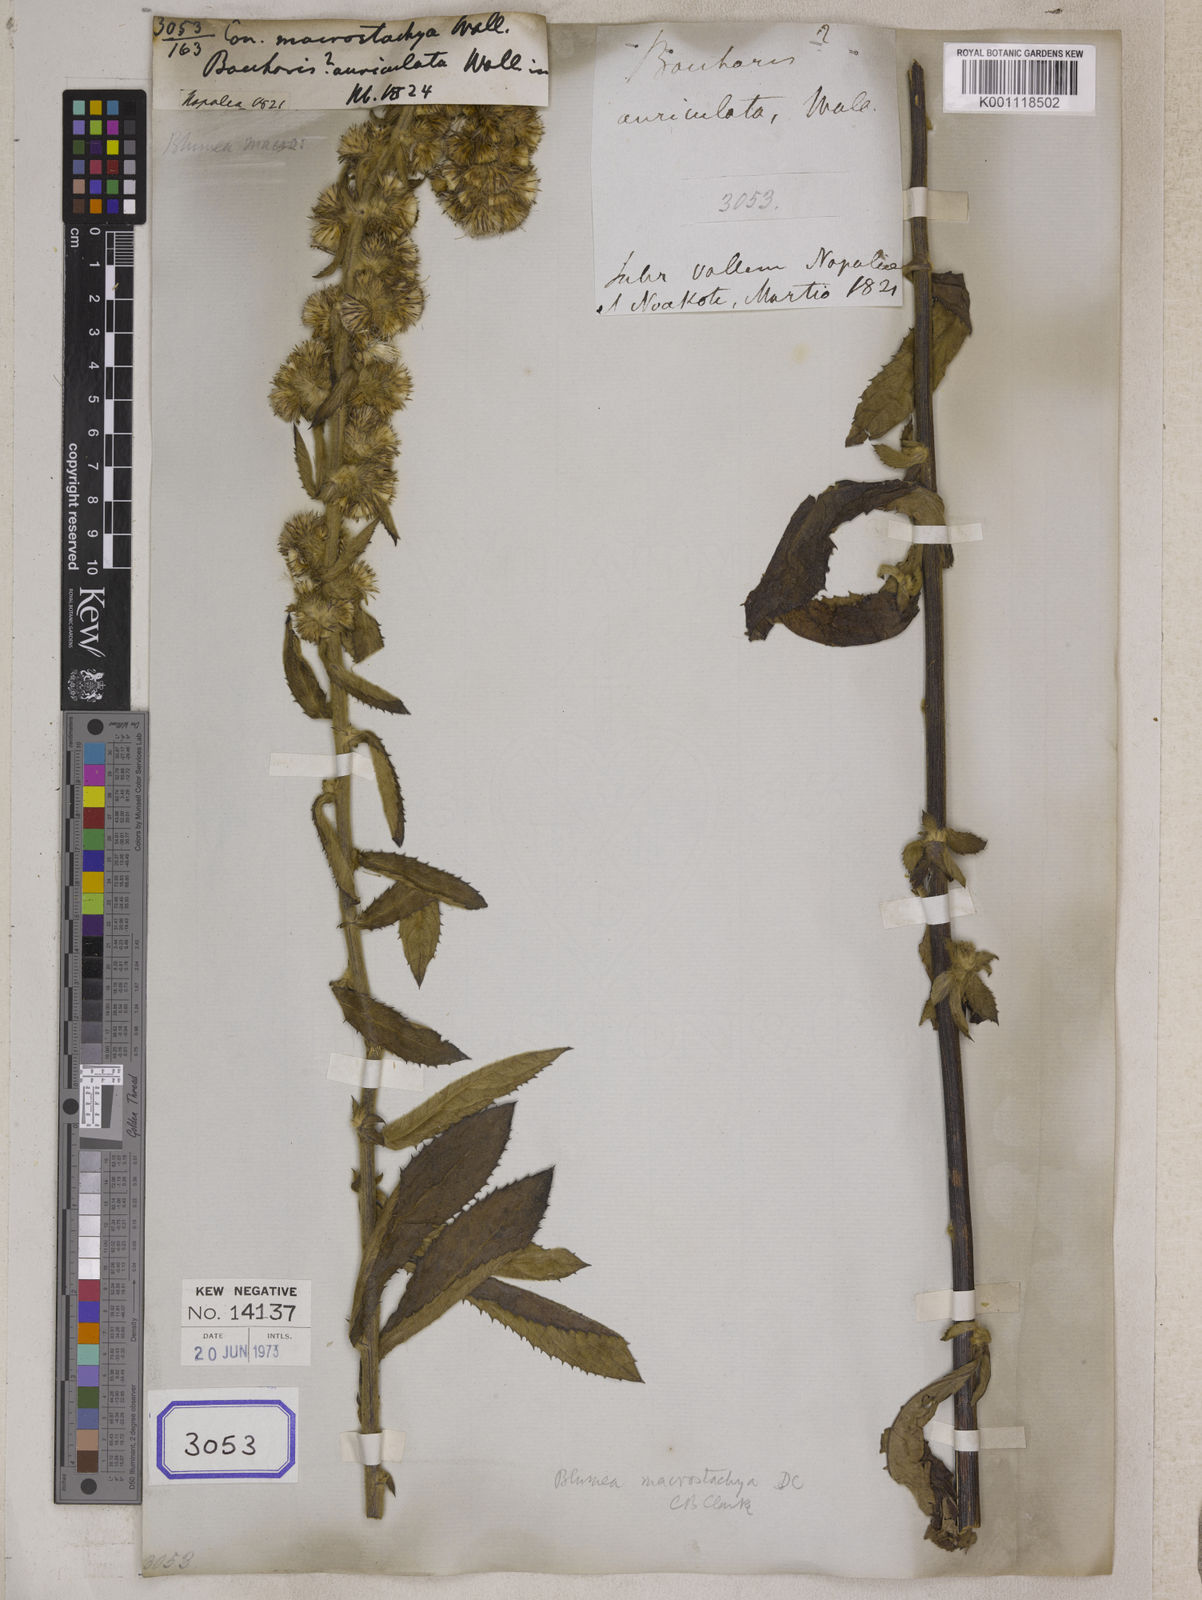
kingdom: Plantae
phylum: Tracheophyta
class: Magnoliopsida
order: Asterales
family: Asteraceae
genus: Blumea
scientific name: Blumea macrostachya
